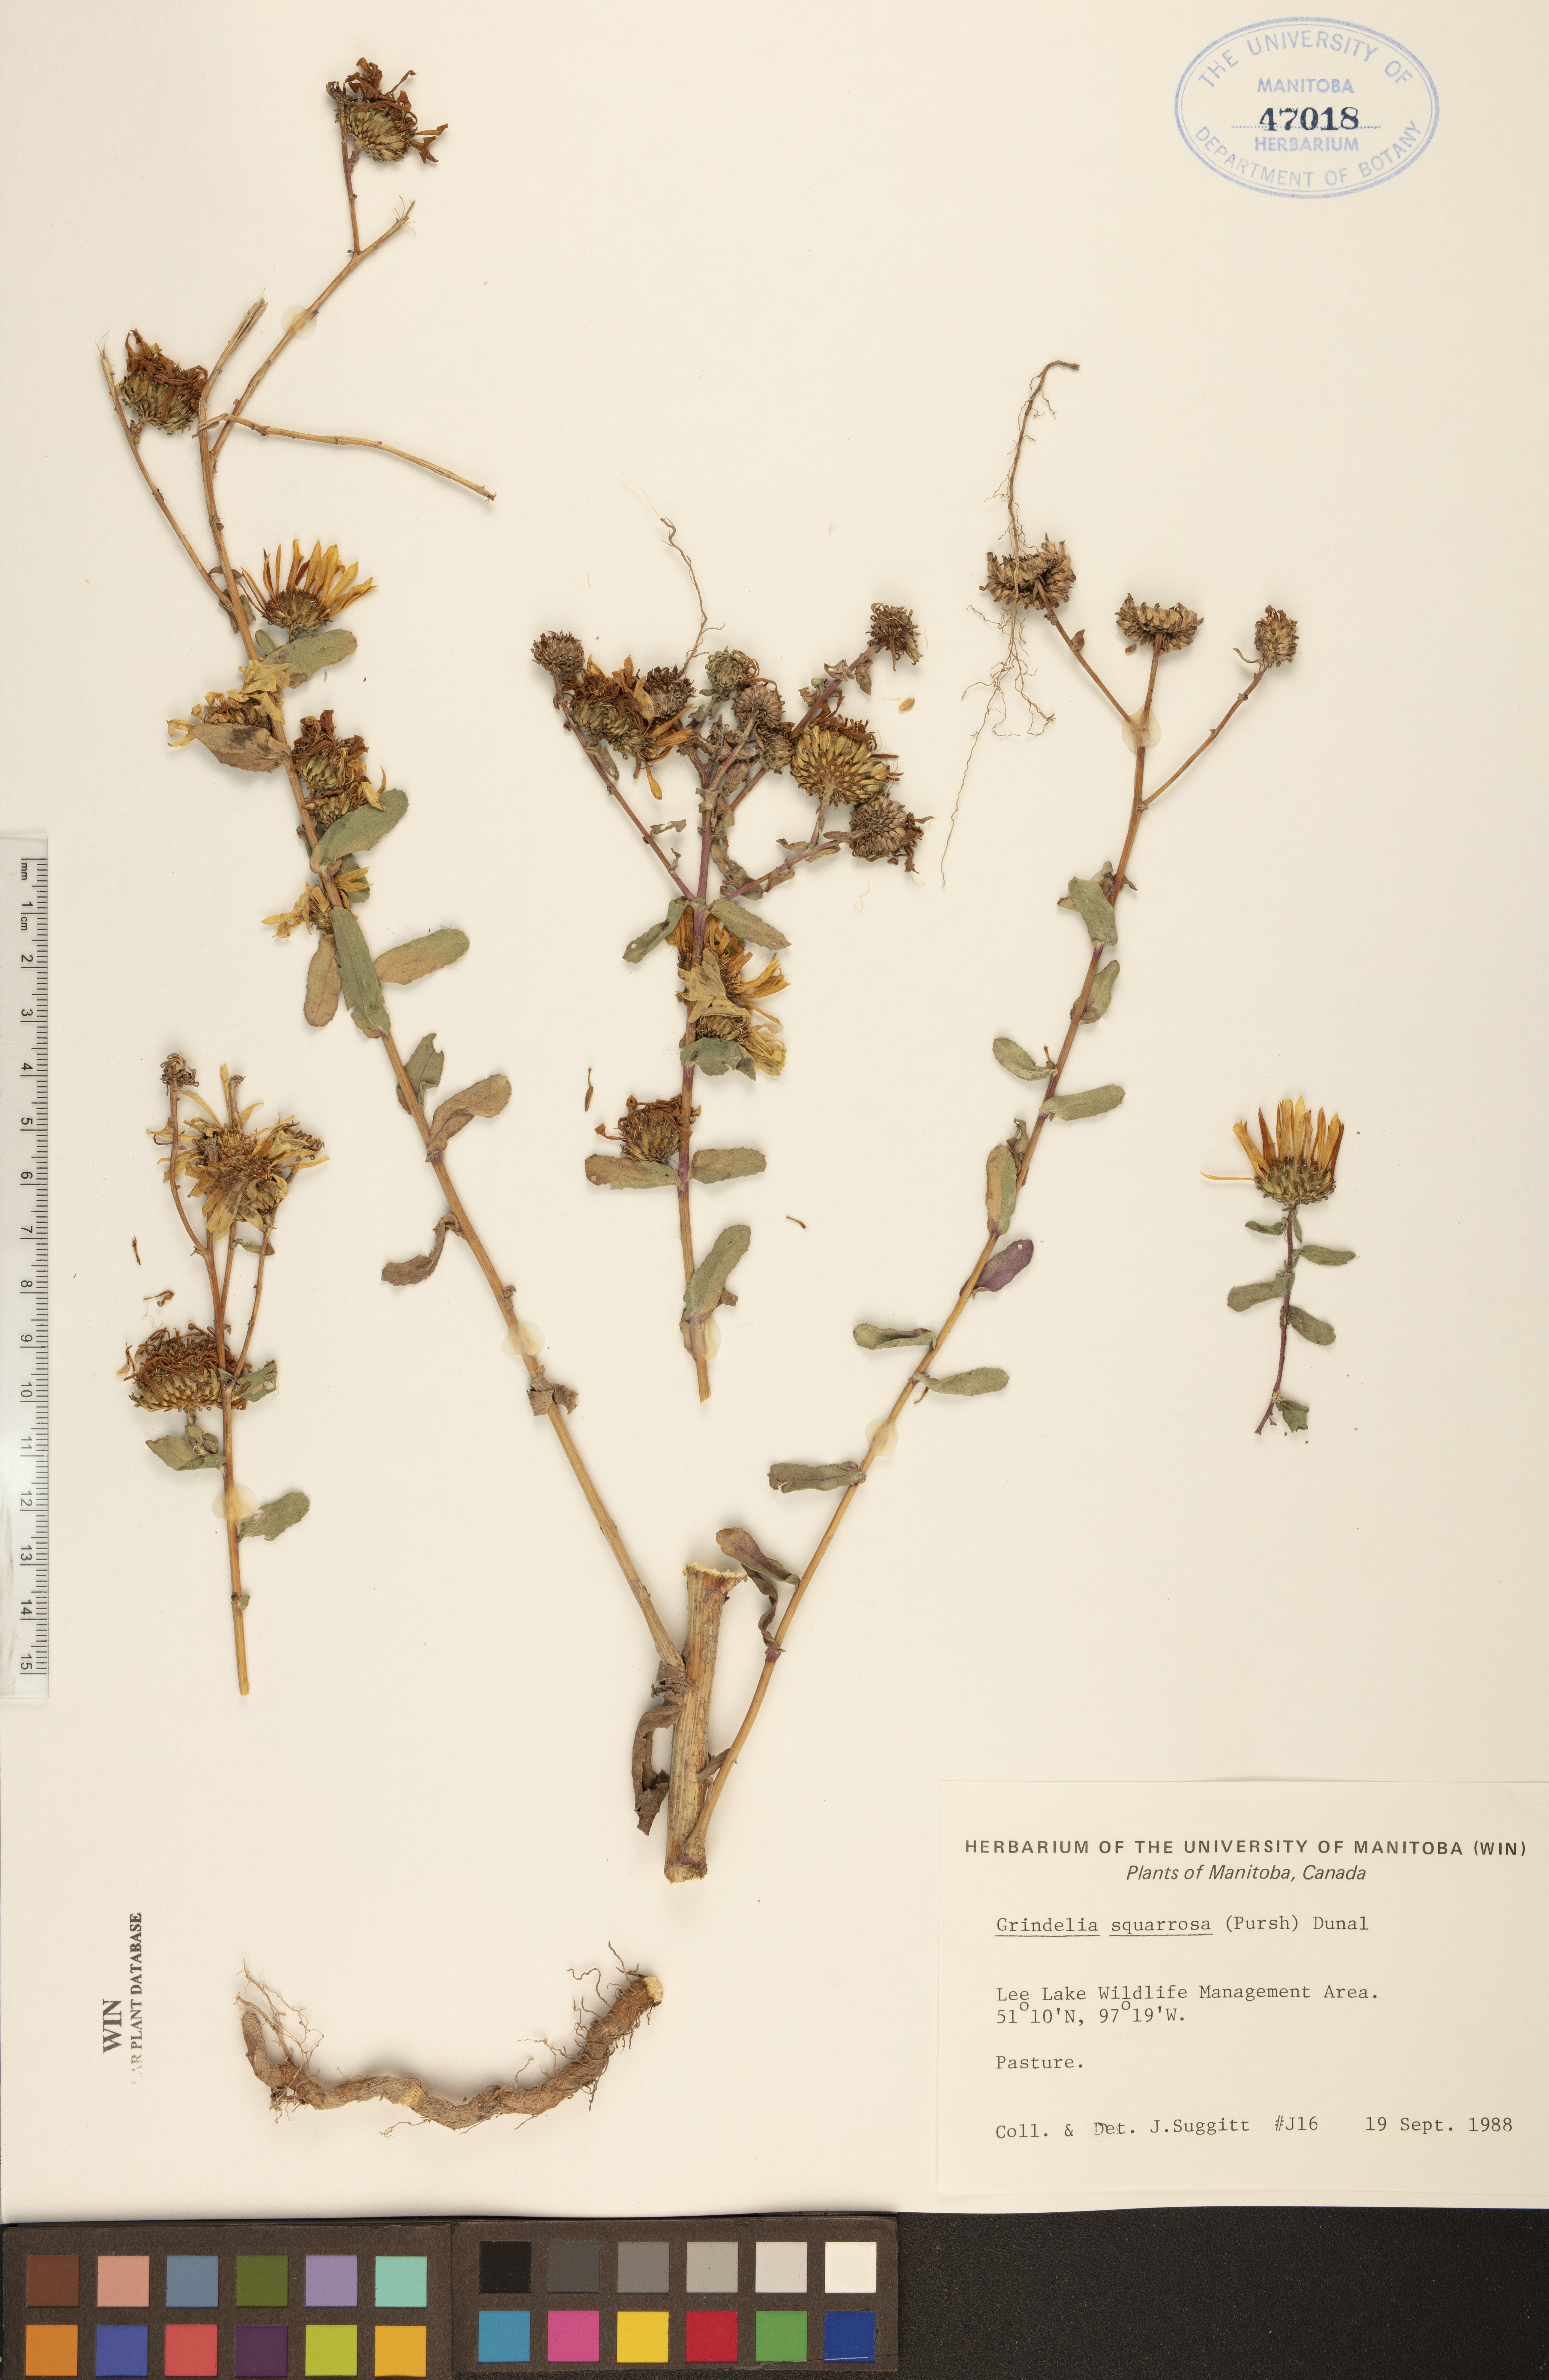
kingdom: Plantae
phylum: Tracheophyta
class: Magnoliopsida
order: Asterales
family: Asteraceae
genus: Grindelia
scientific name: Grindelia squarrosa
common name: Curly-cup gumweed
